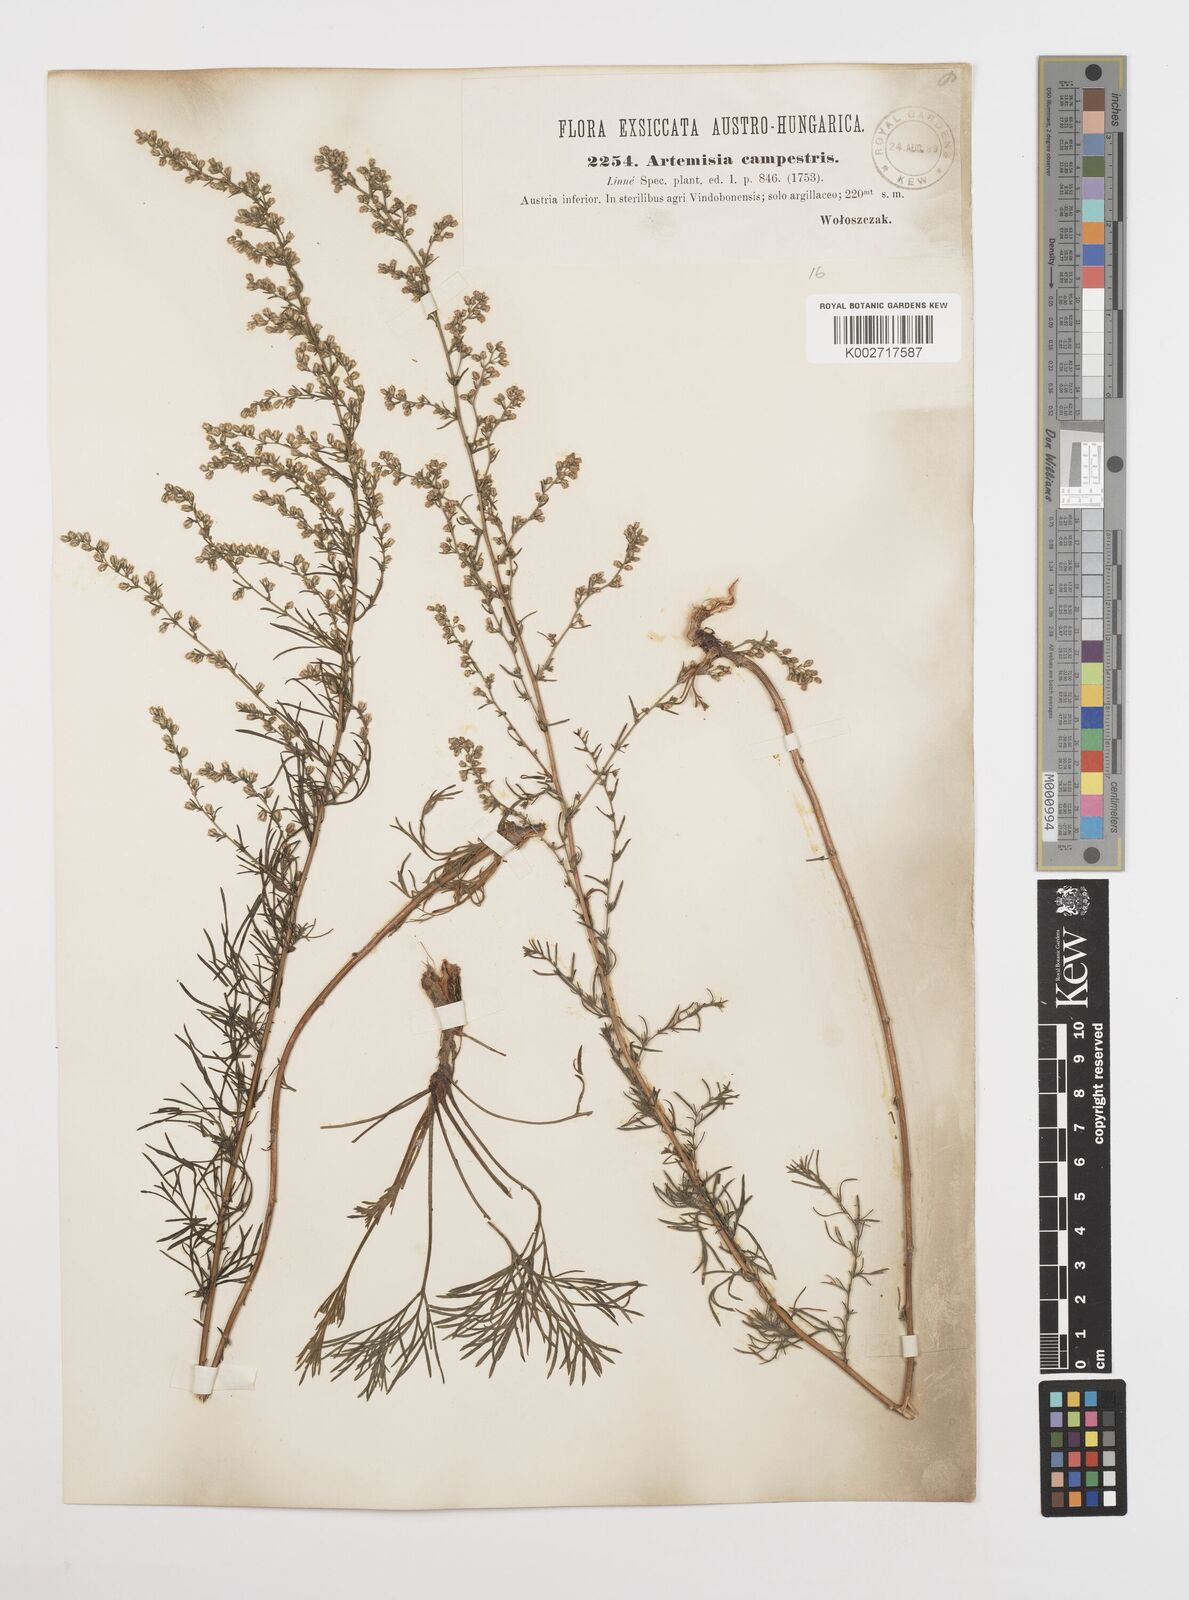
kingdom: Plantae
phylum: Tracheophyta
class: Magnoliopsida
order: Asterales
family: Asteraceae
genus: Artemisia
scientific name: Artemisia campestris
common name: Field wormwood
